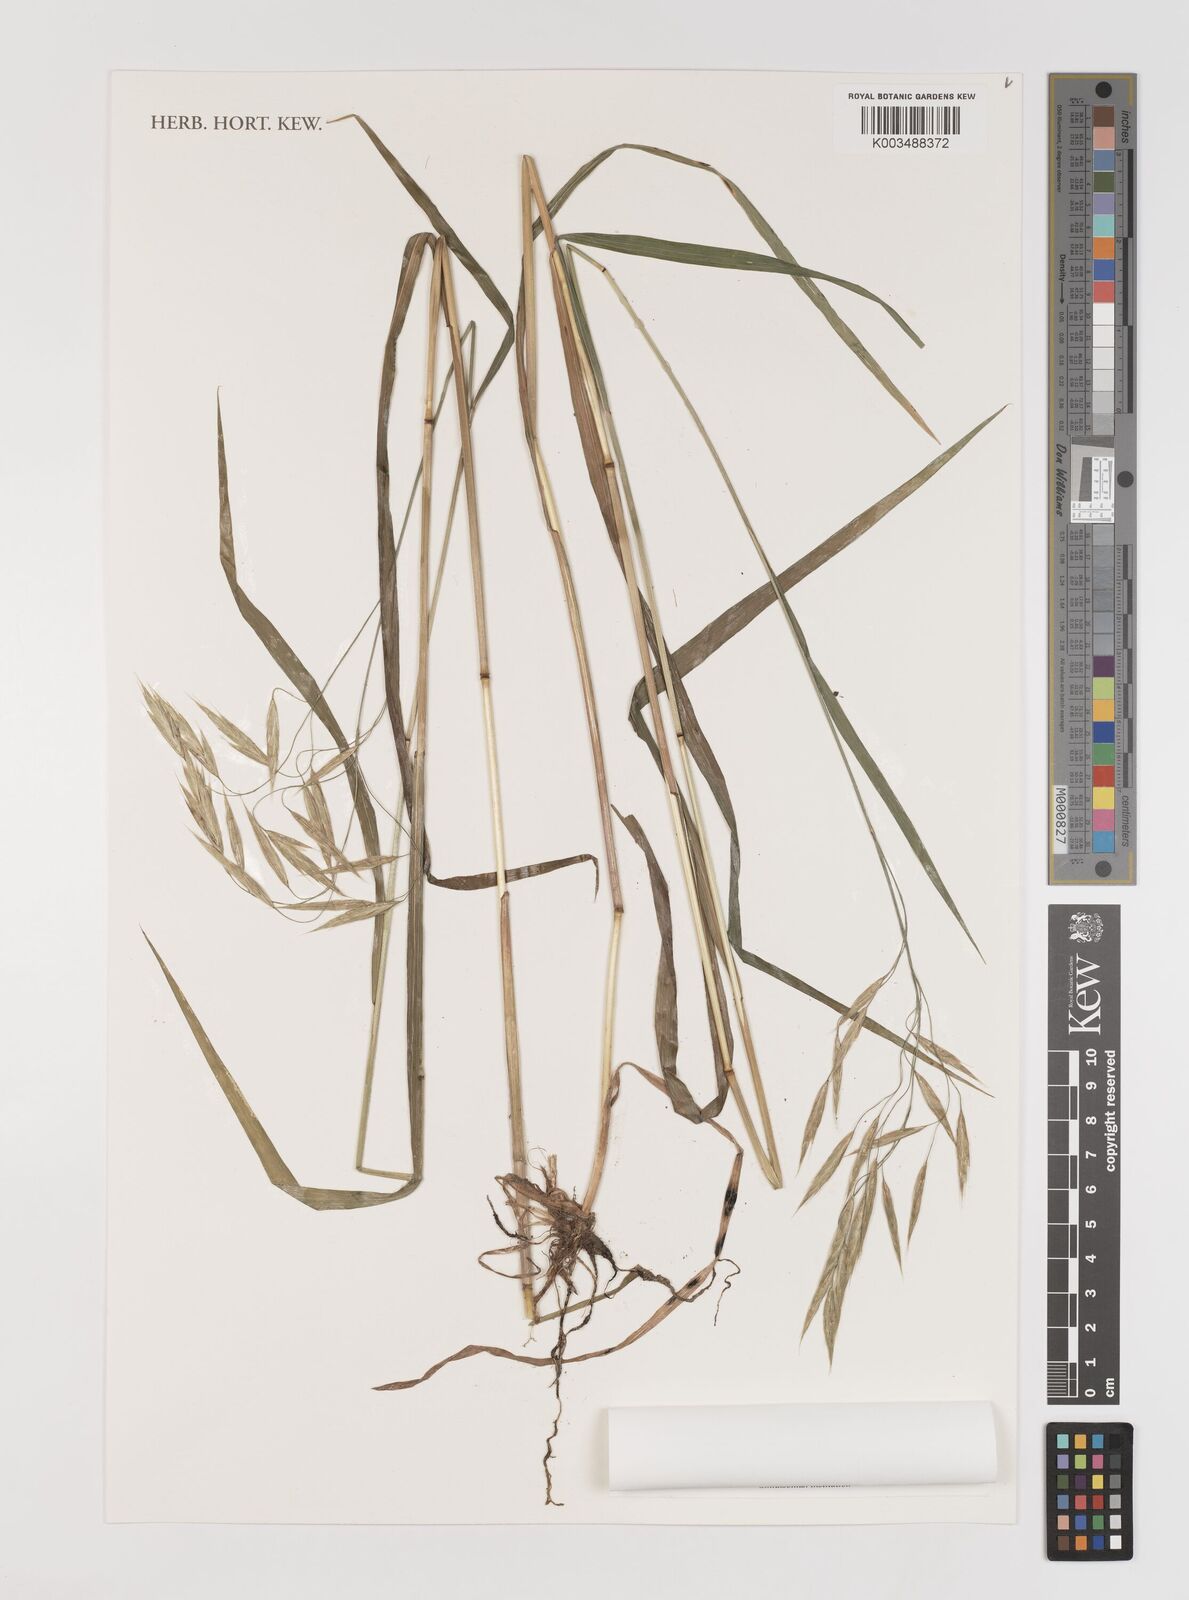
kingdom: Plantae
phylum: Tracheophyta
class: Liliopsida
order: Poales
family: Poaceae
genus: Bromus
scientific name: Bromus ciliatus
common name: Fringe brome
